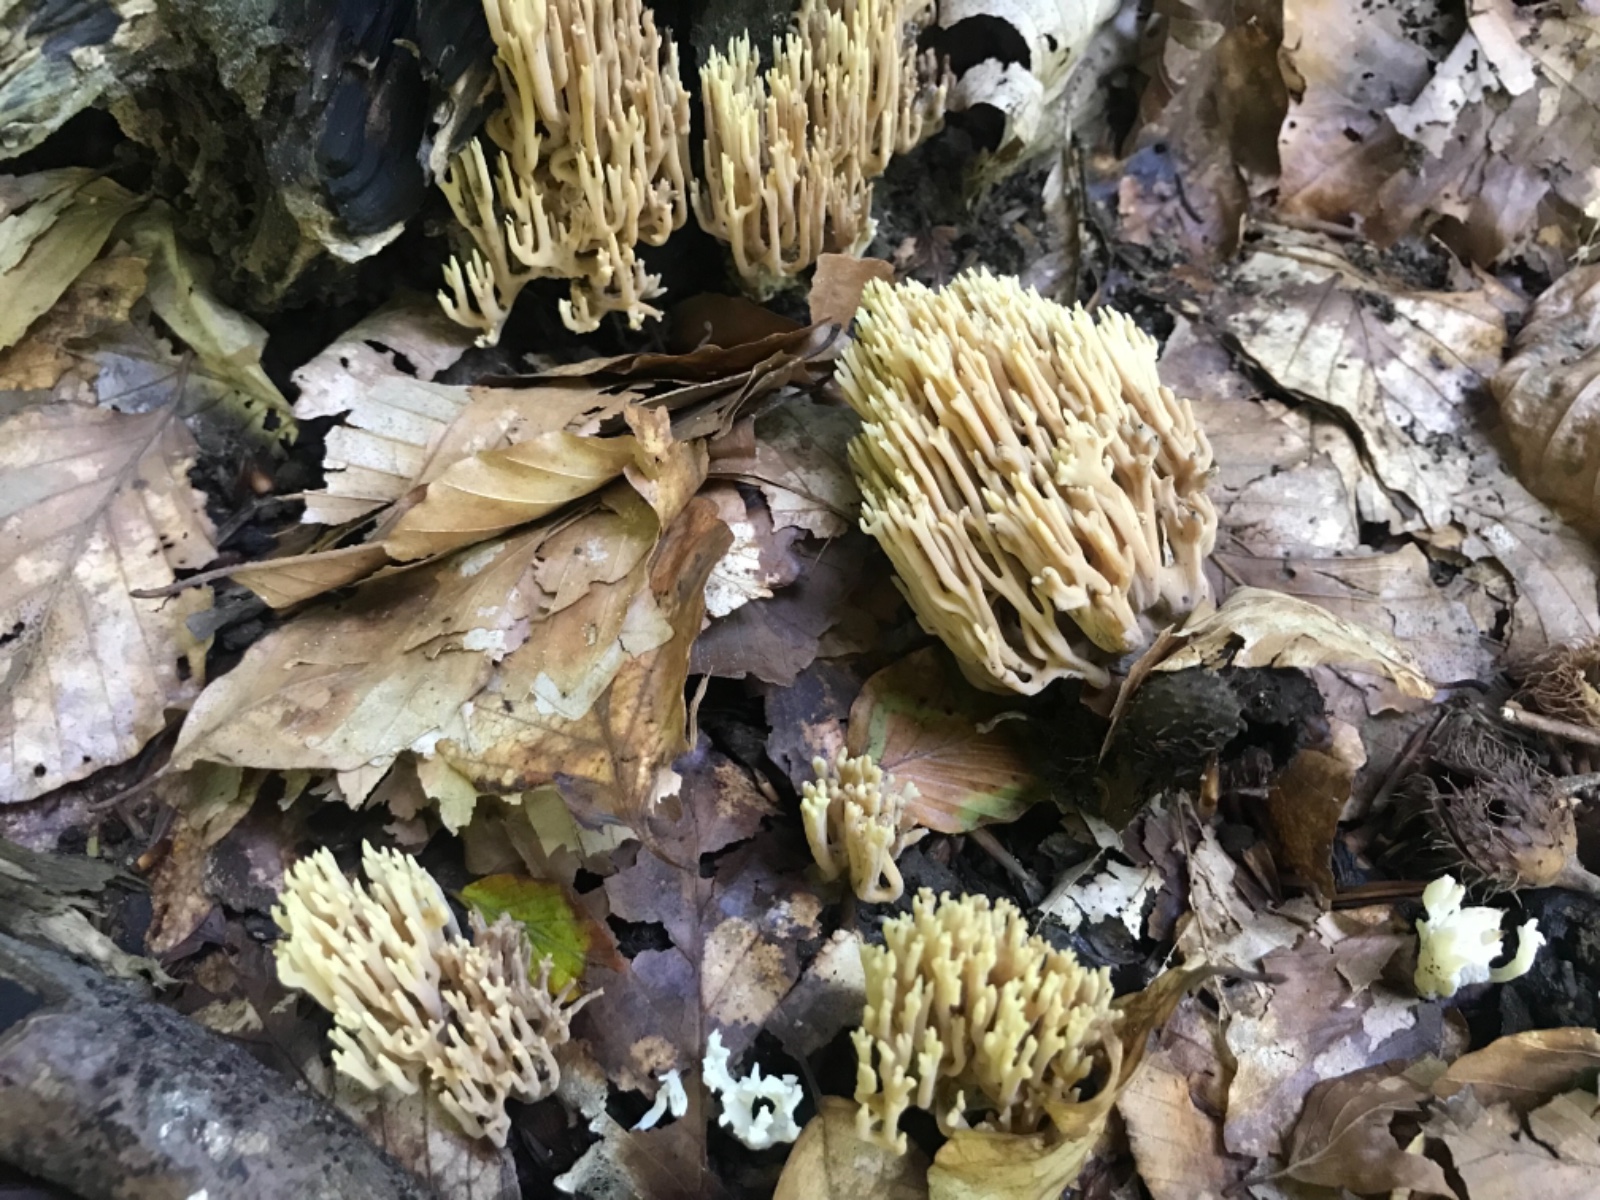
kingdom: Fungi
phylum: Basidiomycota
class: Agaricomycetes
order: Gomphales
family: Gomphaceae
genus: Ramaria
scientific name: Ramaria stricta
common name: rank koralsvamp
